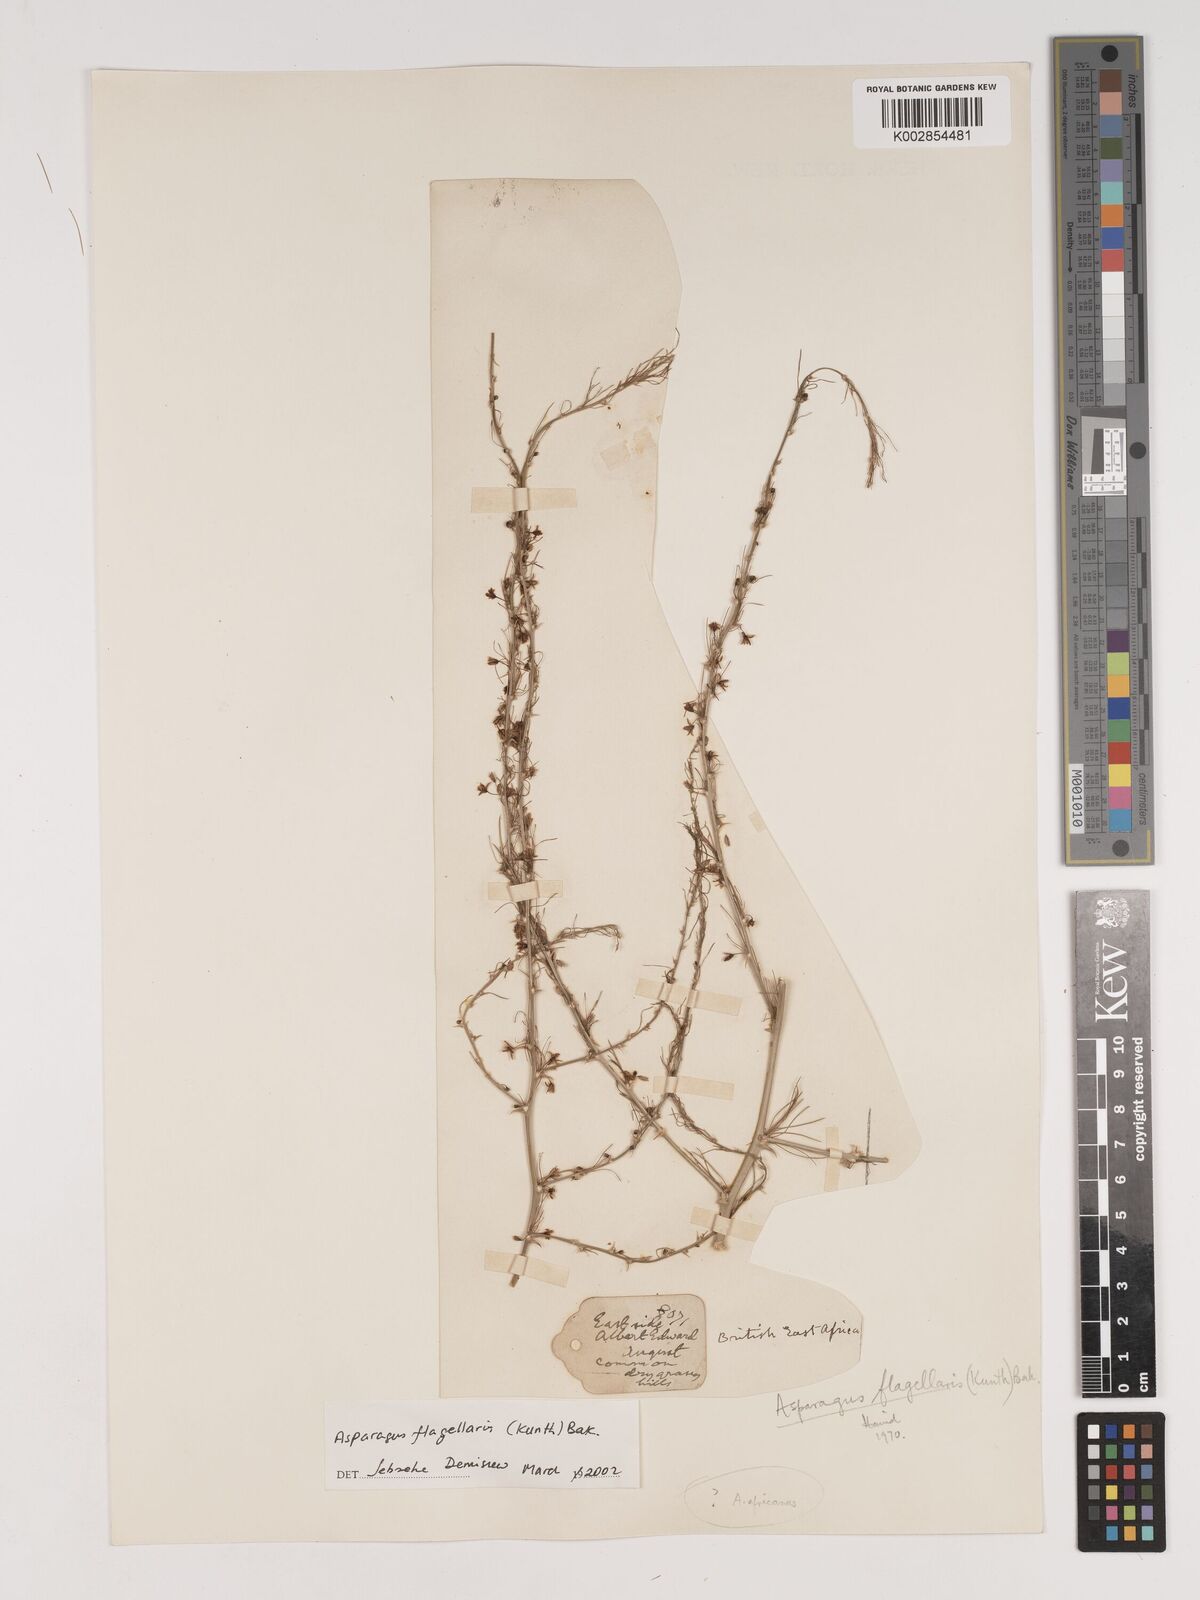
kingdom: Plantae
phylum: Tracheophyta
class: Liliopsida
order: Asparagales
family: Asparagaceae
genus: Asparagus
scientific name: Asparagus flagellaris
